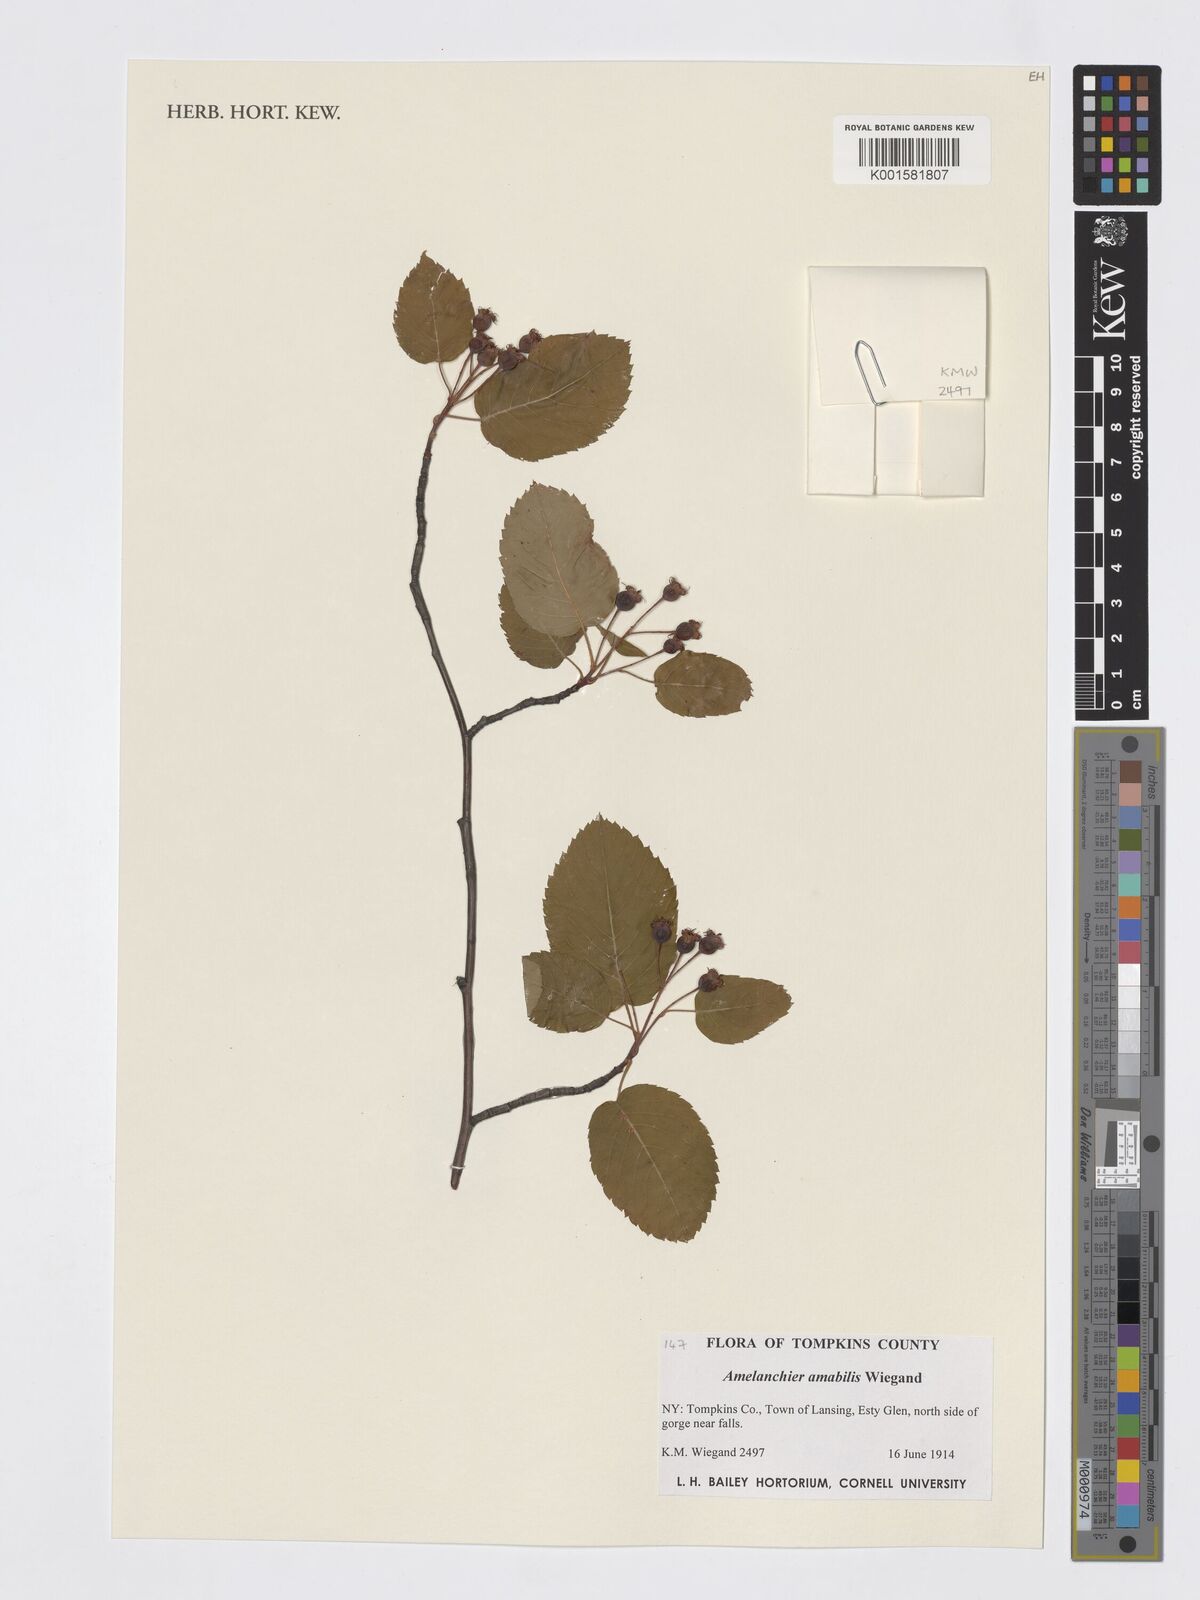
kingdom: Plantae
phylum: Tracheophyta
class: Magnoliopsida
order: Rosales
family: Rosaceae
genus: Amelanchier
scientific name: Amelanchier sanguinea
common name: Huron serviceberry
